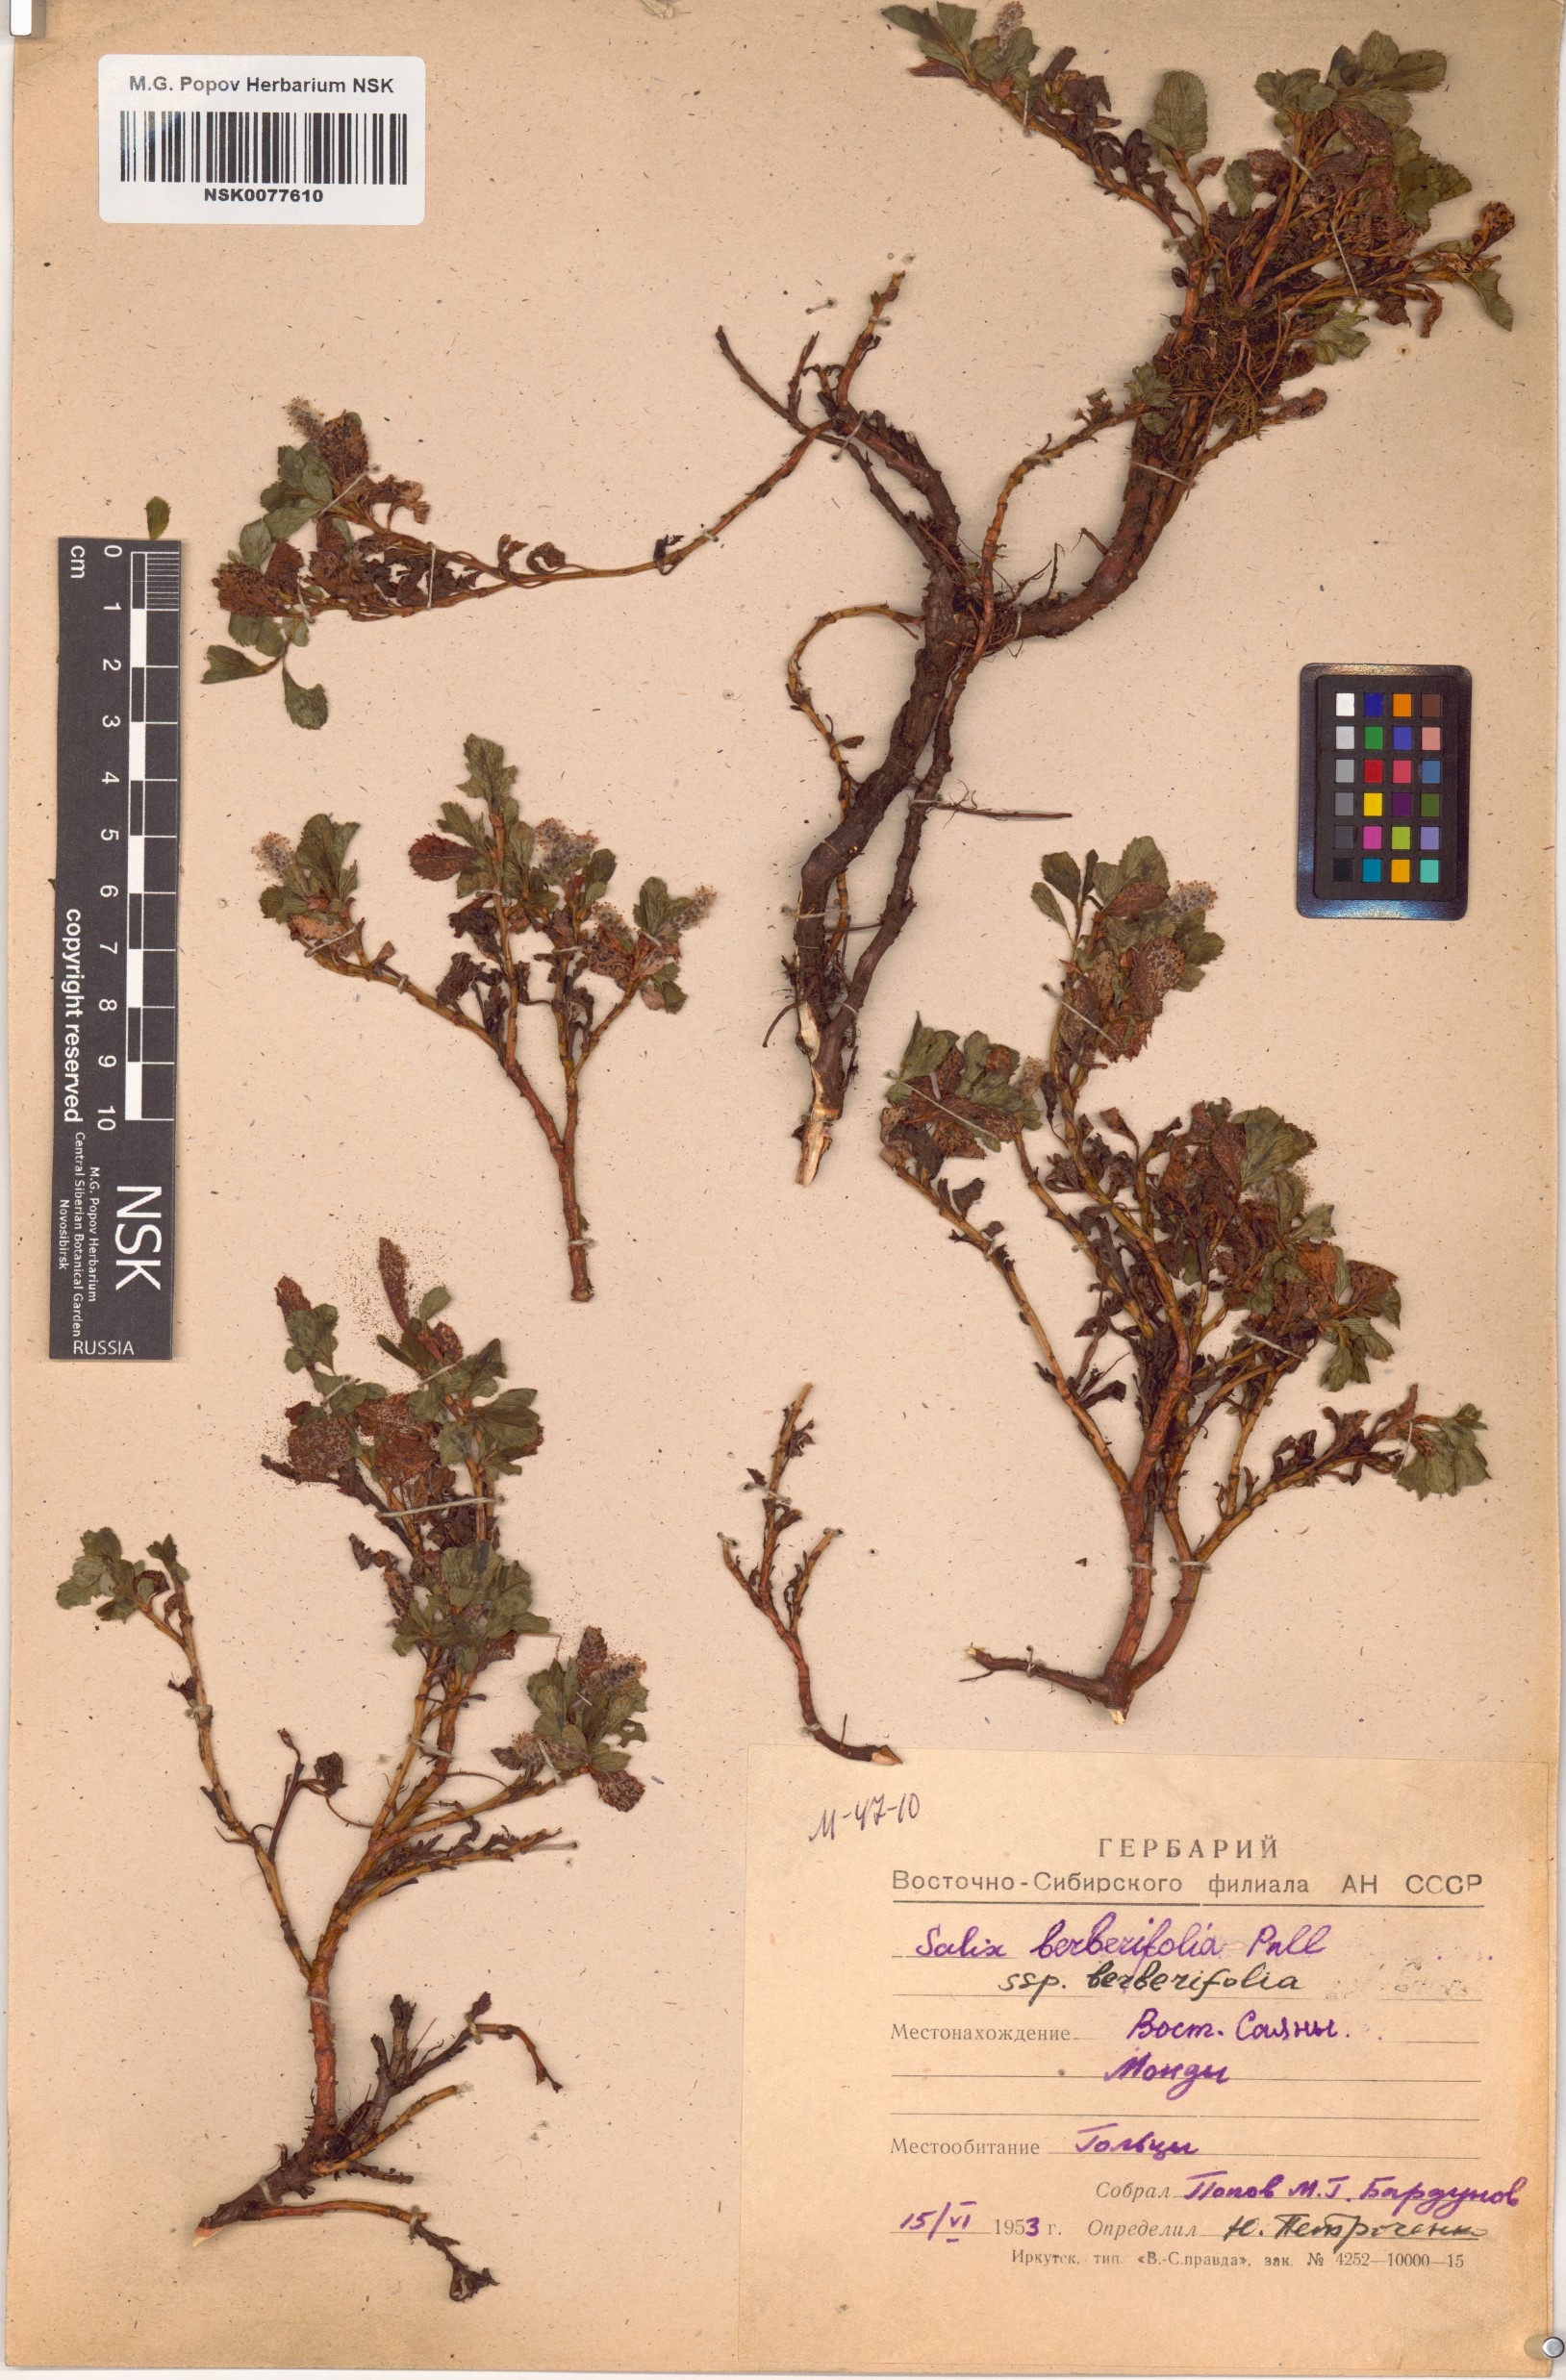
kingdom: Plantae
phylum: Tracheophyta
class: Magnoliopsida
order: Malpighiales
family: Salicaceae
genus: Salix
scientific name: Salix berberifolia
